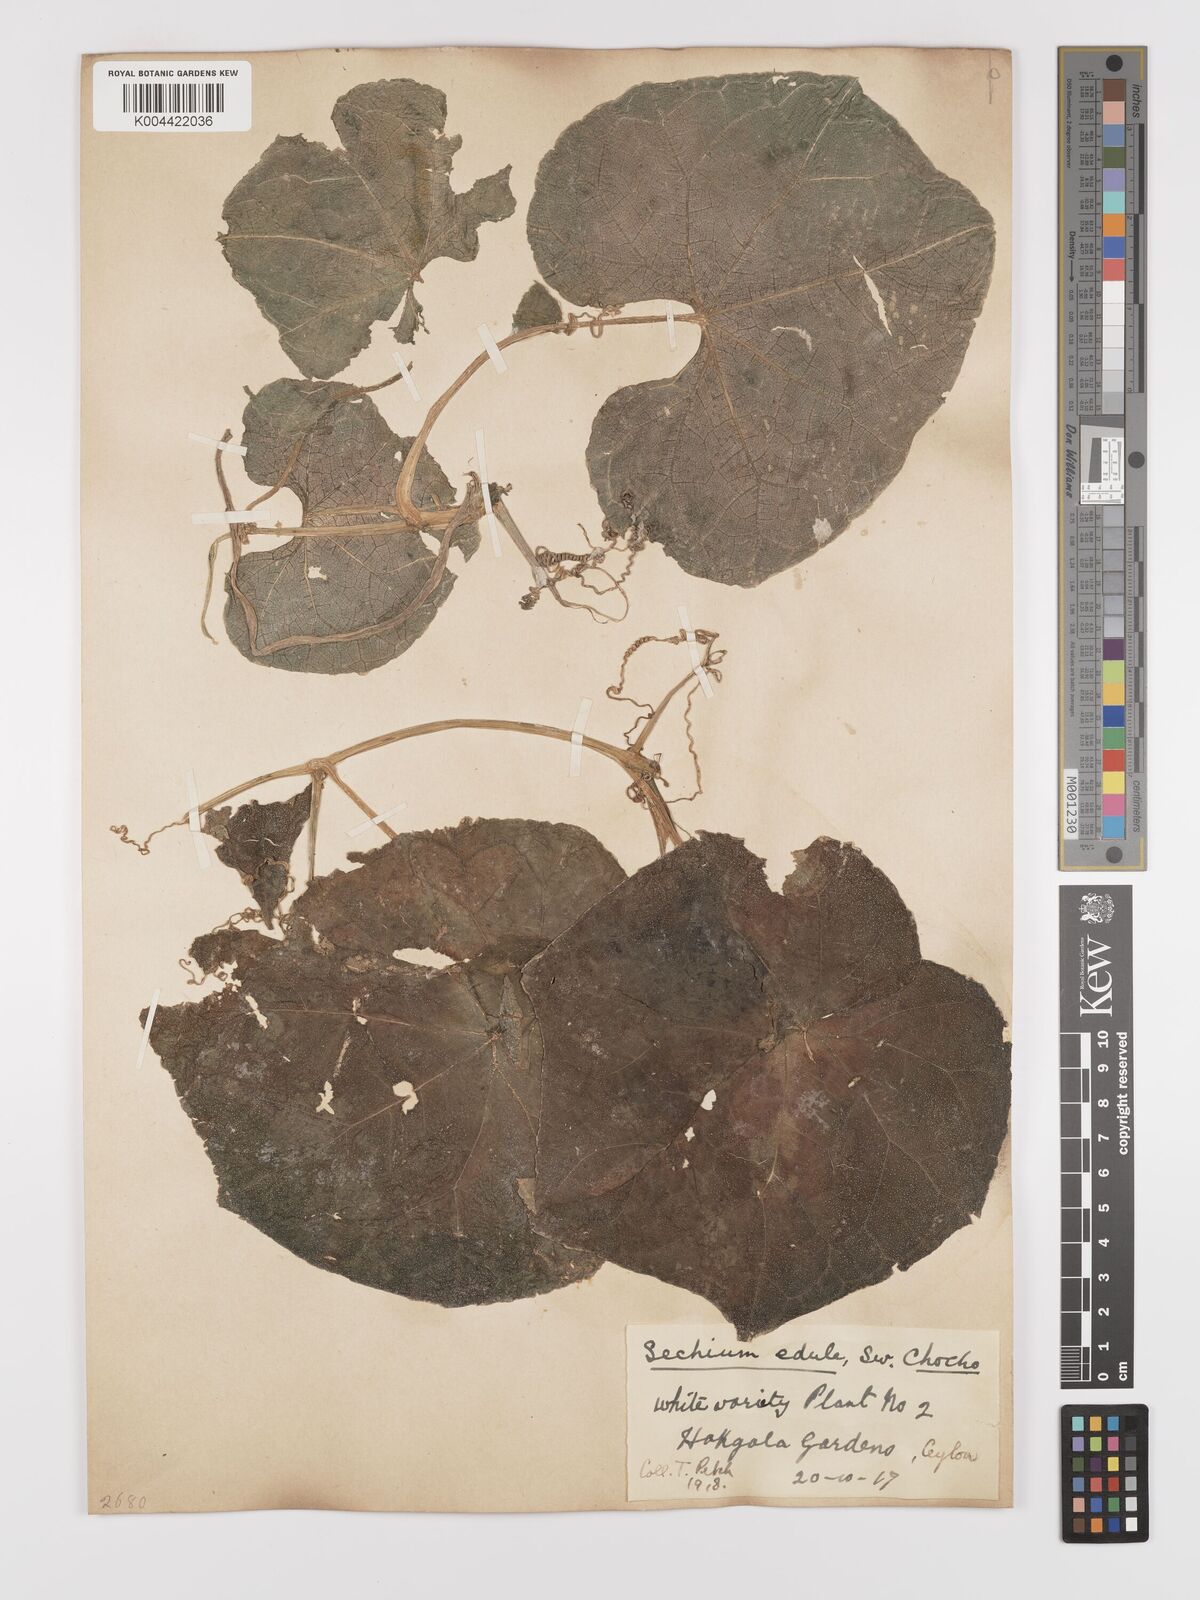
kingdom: Plantae
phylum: Tracheophyta
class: Magnoliopsida
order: Cucurbitales
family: Cucurbitaceae
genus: Sechium
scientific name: Sechium edule
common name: Chayote
